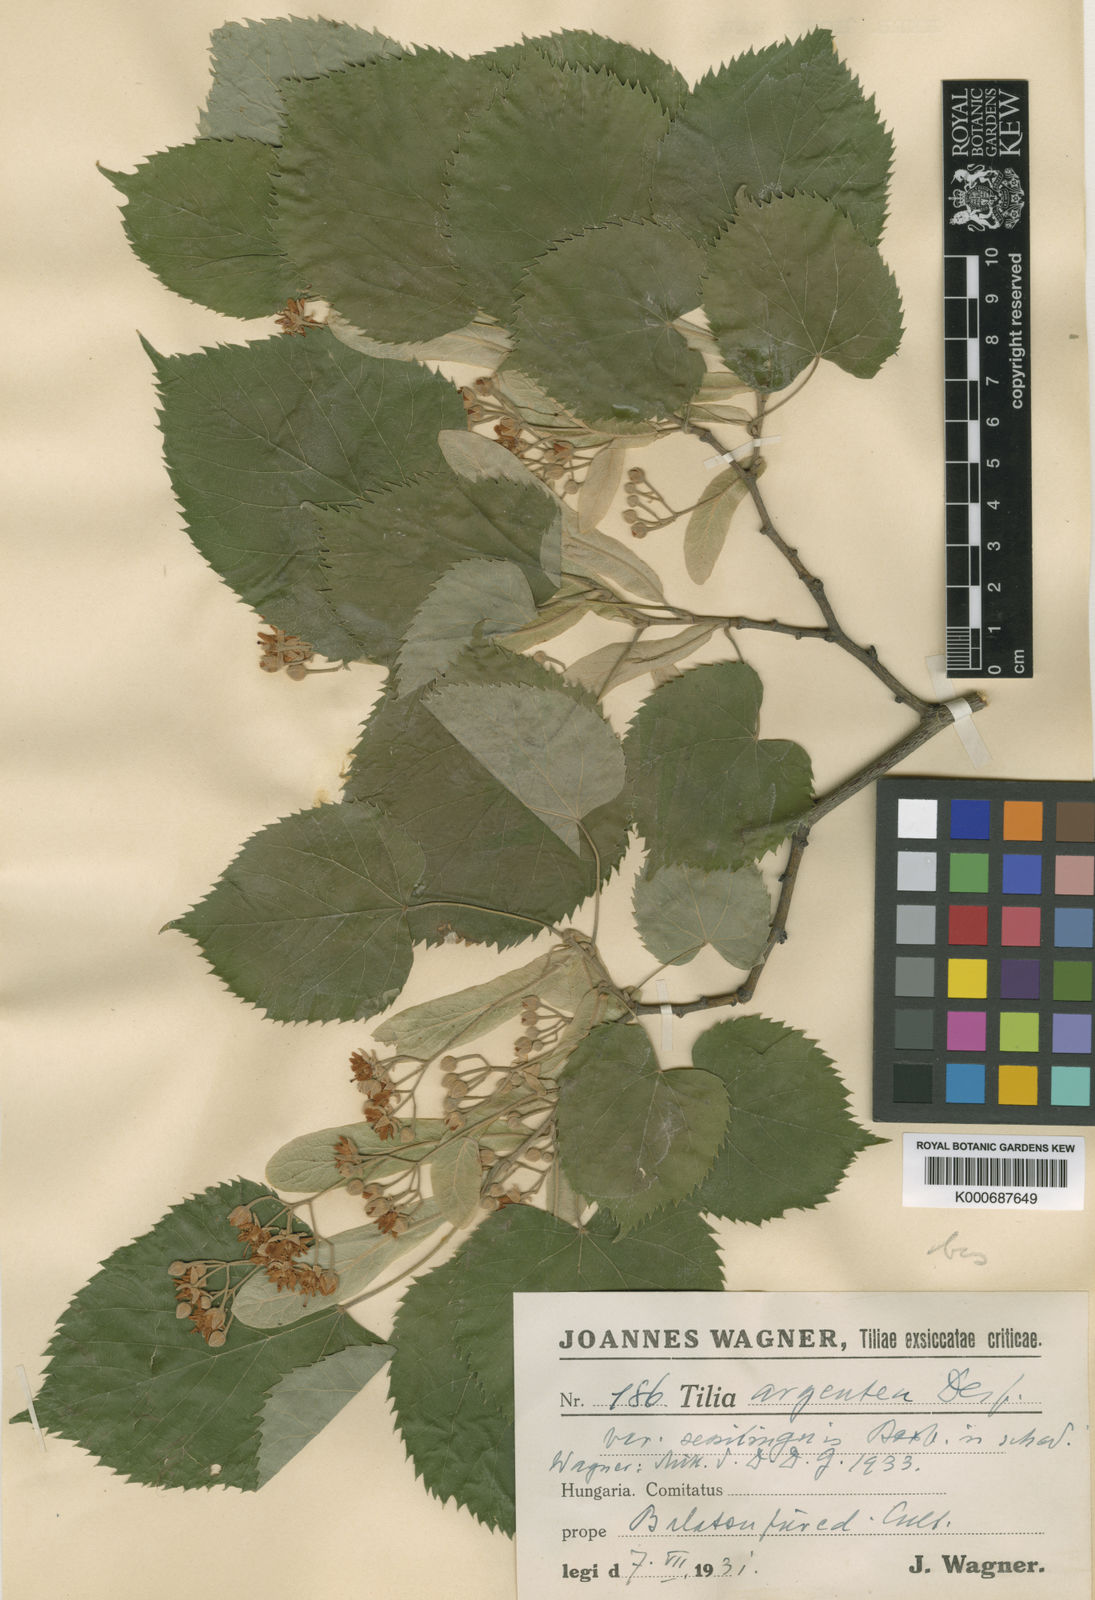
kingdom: Plantae
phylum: Tracheophyta
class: Magnoliopsida
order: Malvales
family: Malvaceae
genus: Tilia
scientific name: Tilia tomentosa
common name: Silver lime
